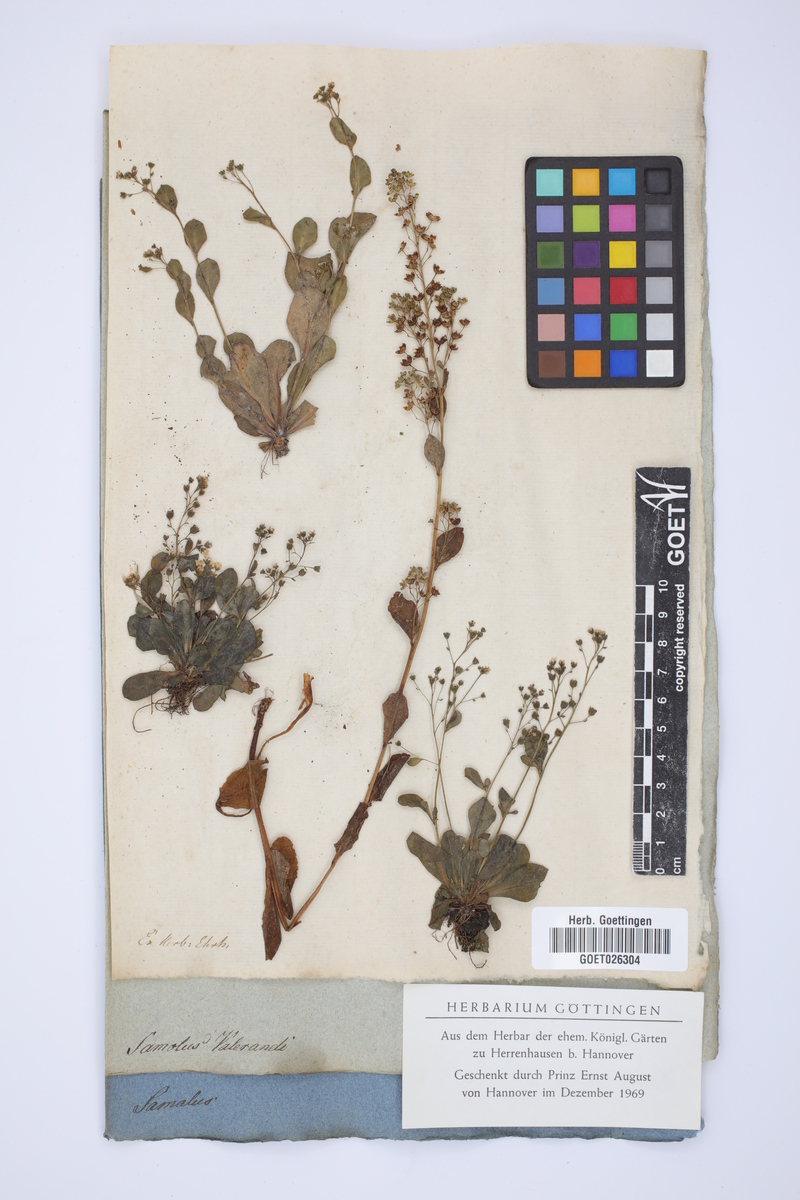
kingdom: Plantae
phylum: Tracheophyta
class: Magnoliopsida
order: Ericales
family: Primulaceae
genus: Samolus
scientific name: Samolus valerandi
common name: Brookweed
